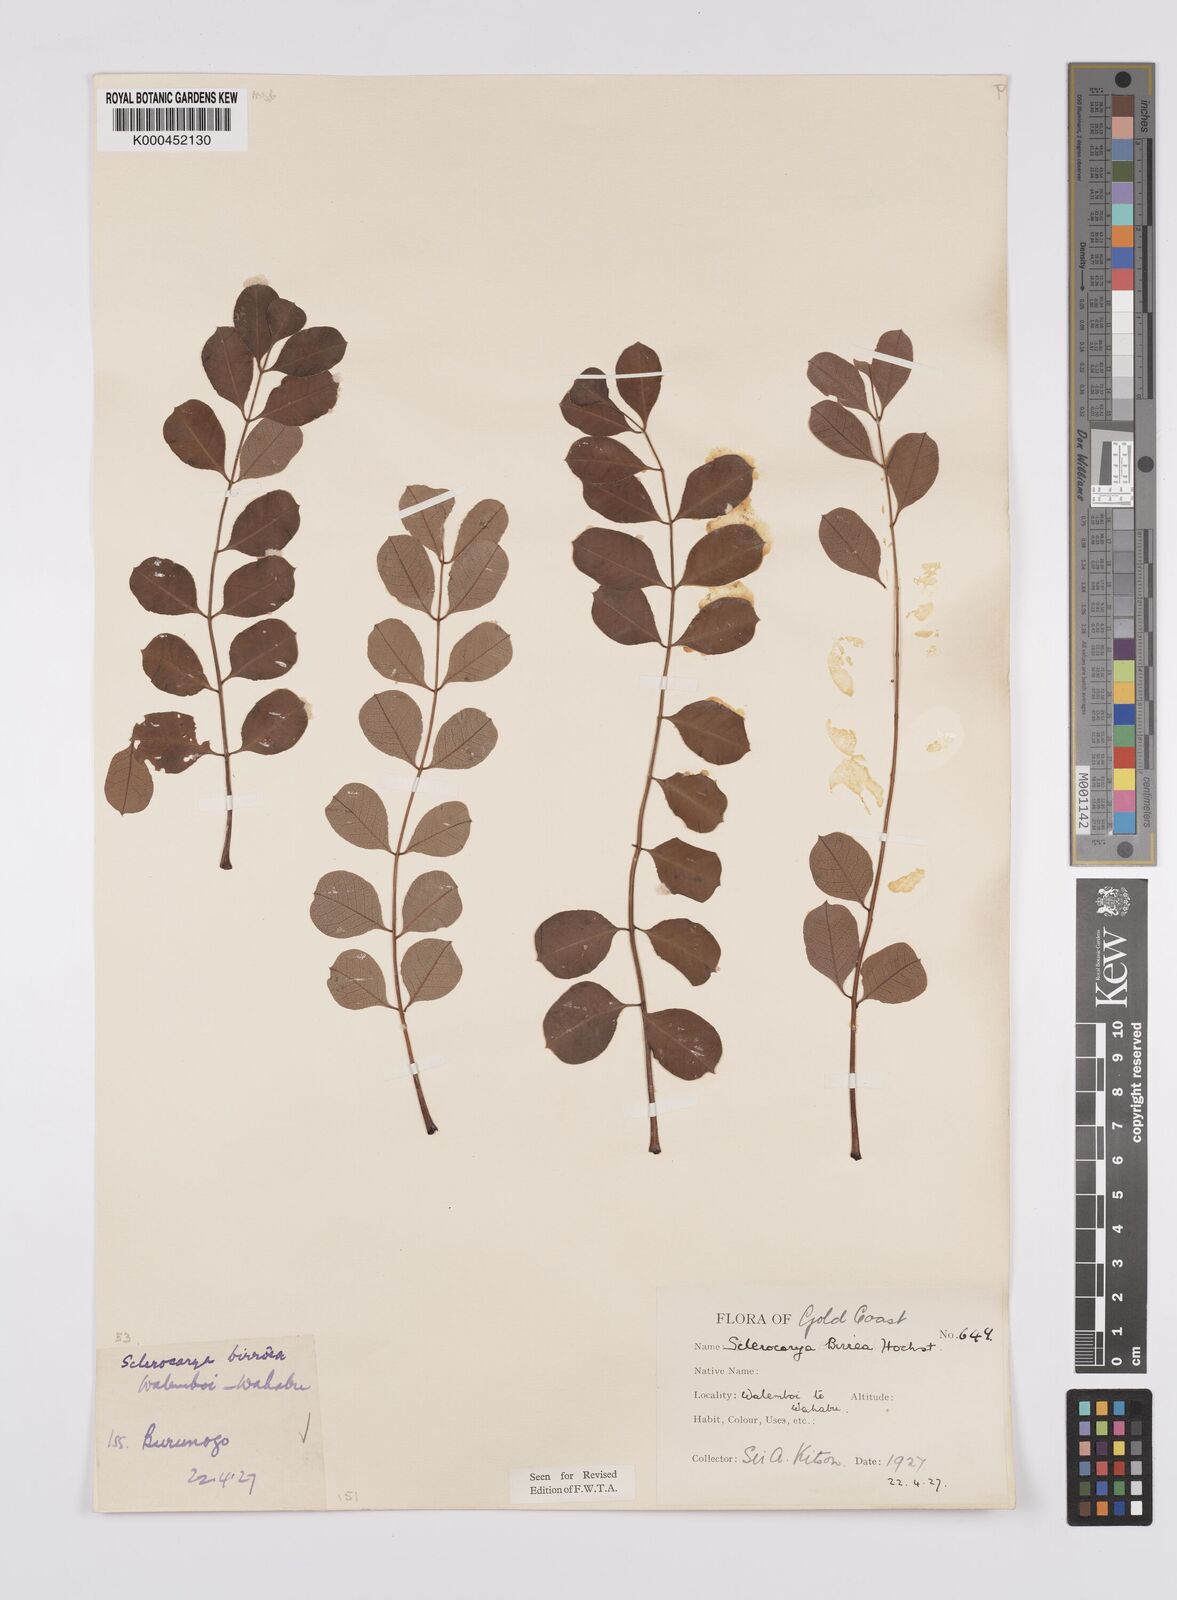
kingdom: Plantae
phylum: Tracheophyta
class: Magnoliopsida
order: Sapindales
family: Anacardiaceae
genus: Sclerocarya
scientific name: Sclerocarya birrea
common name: Marula
